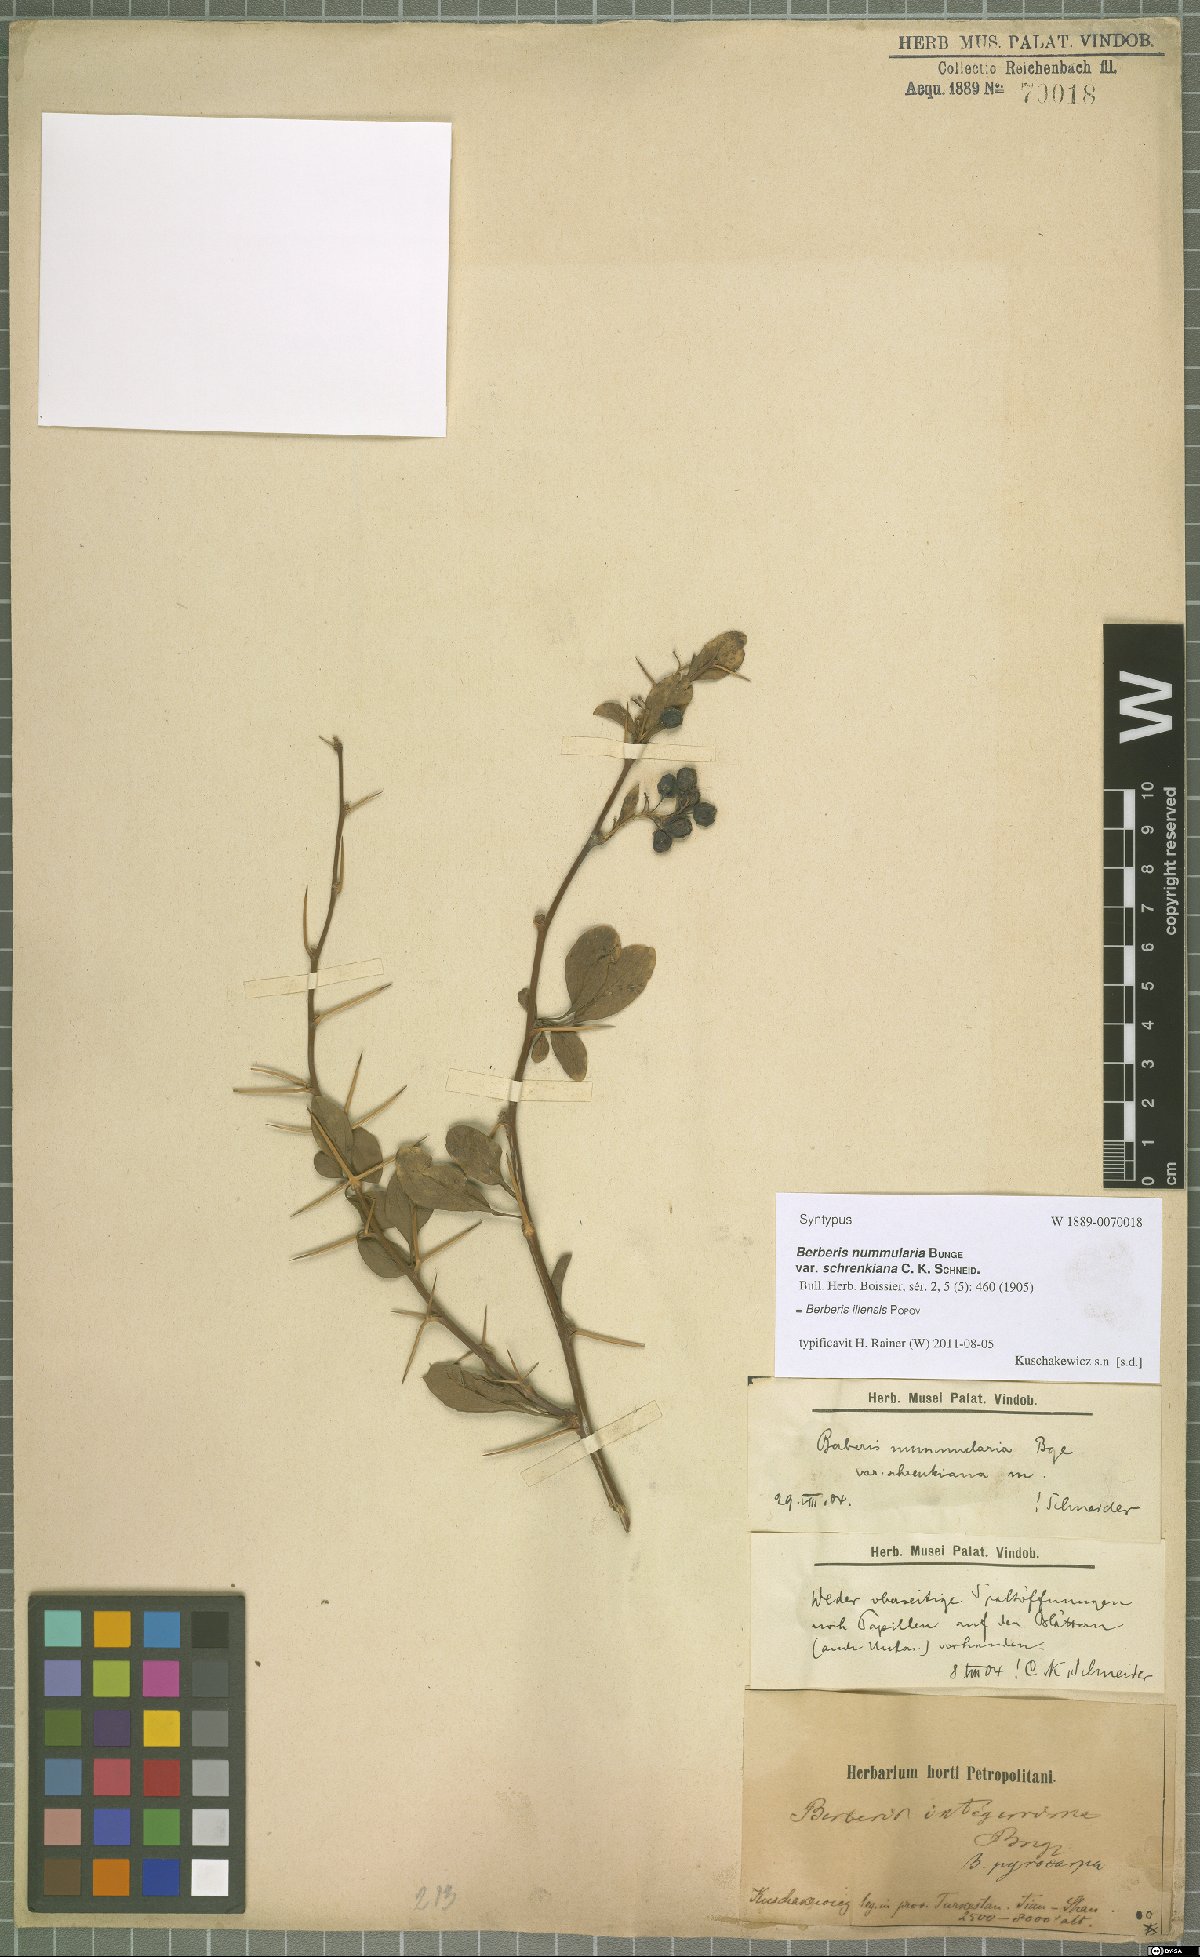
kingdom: Plantae
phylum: Tracheophyta
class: Magnoliopsida
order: Ranunculales
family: Berberidaceae
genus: Berberis
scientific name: Berberis integerrima
